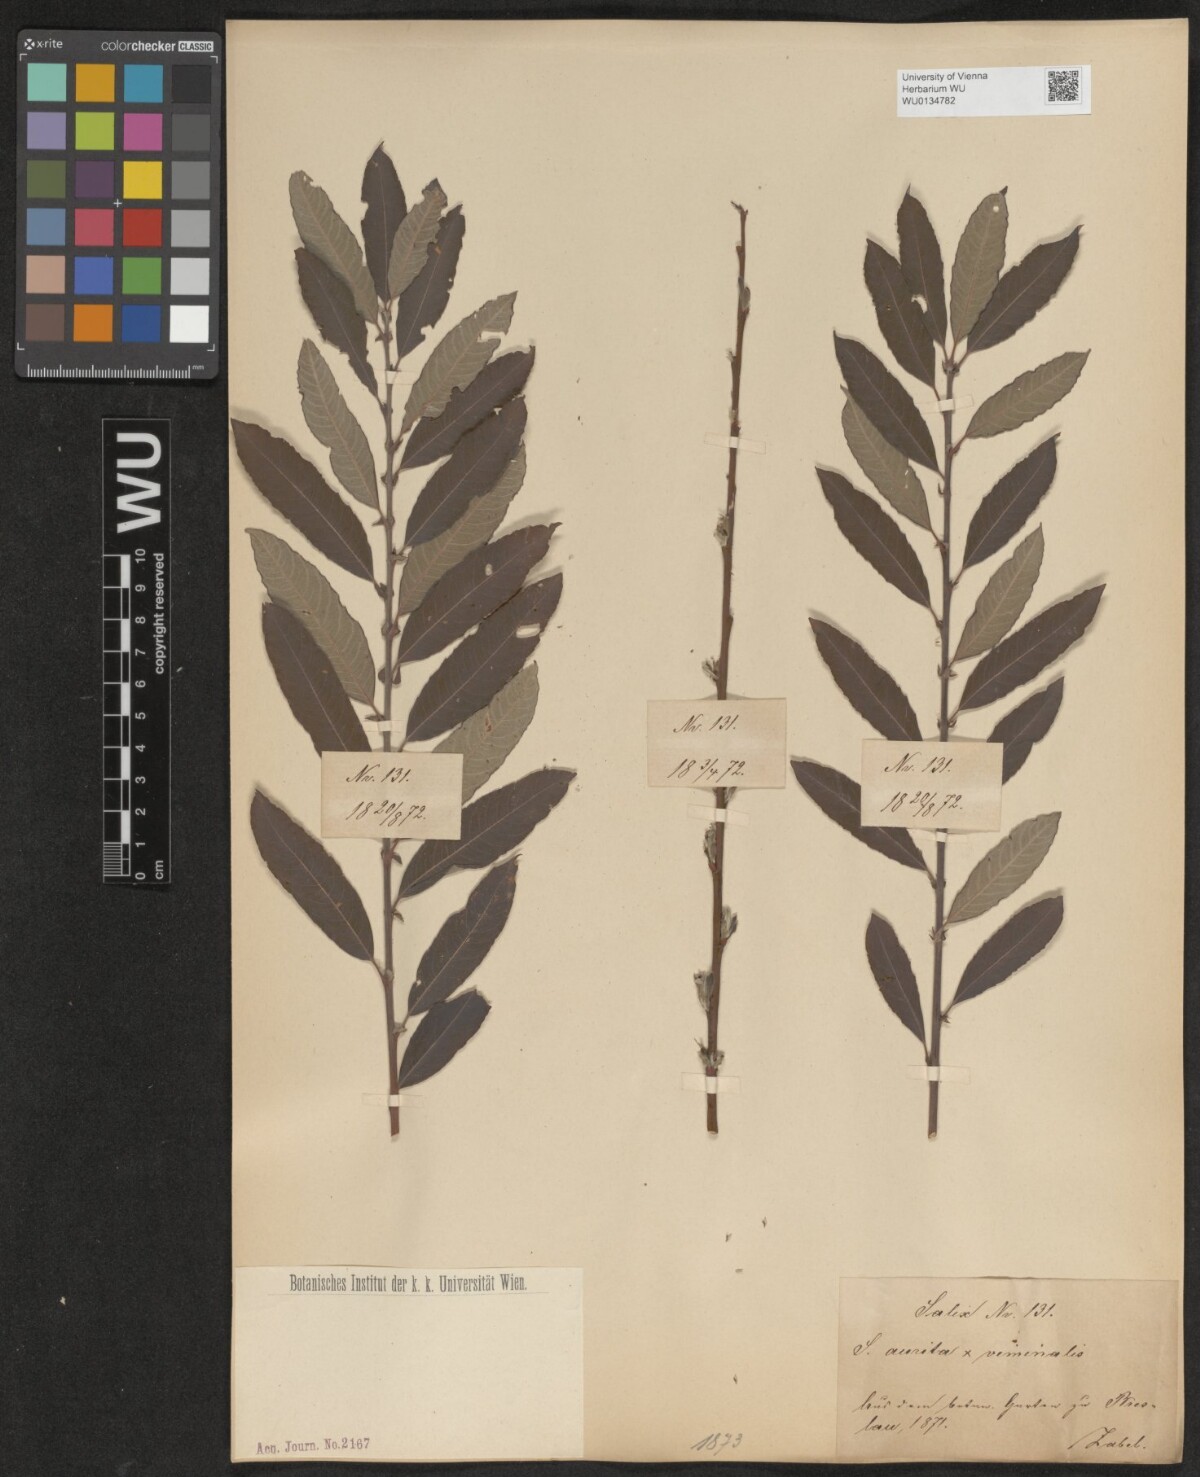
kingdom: Plantae
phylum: Tracheophyta
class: Magnoliopsida
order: Malpighiales
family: Salicaceae
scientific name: Salicaceae
